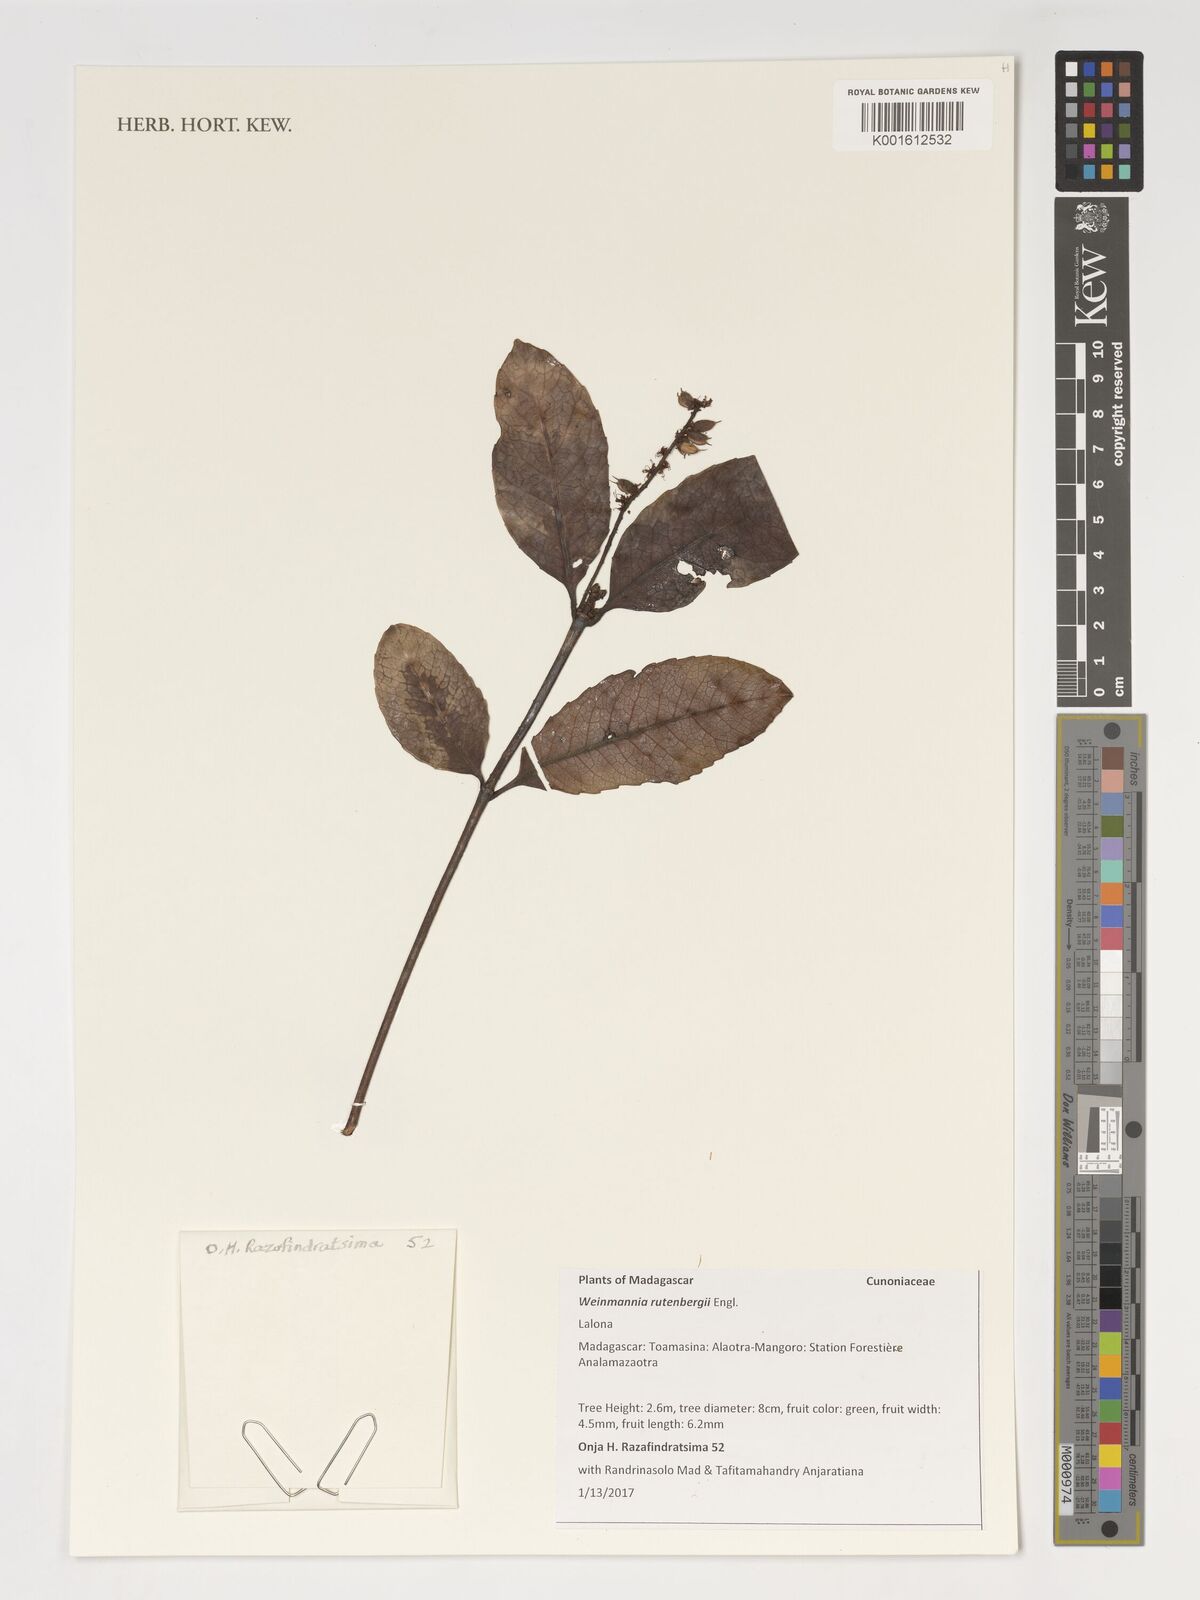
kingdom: Plantae
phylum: Tracheophyta
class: Magnoliopsida
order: Oxalidales
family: Cunoniaceae
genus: Pterophylla
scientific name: Pterophylla rutenbergii
